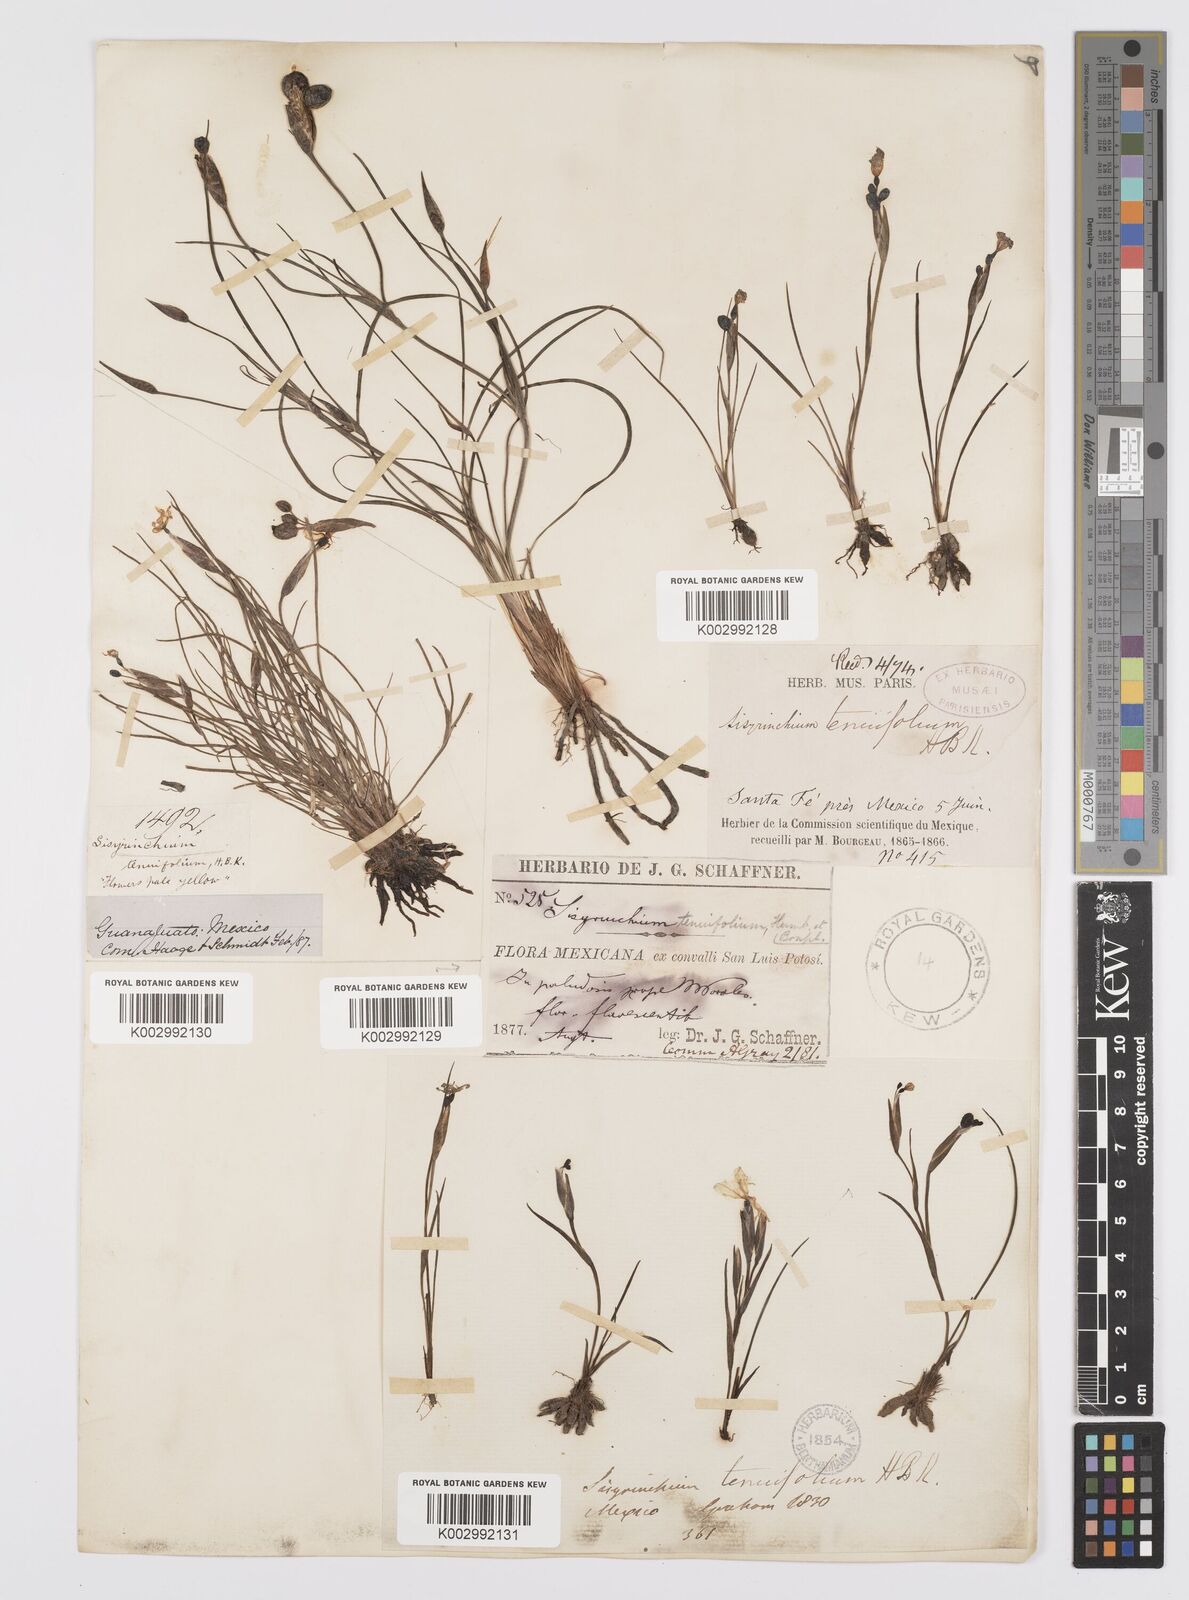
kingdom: Plantae
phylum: Tracheophyta
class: Liliopsida
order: Asparagales
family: Iridaceae
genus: Sisyrinchium
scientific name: Sisyrinchium langloisii
